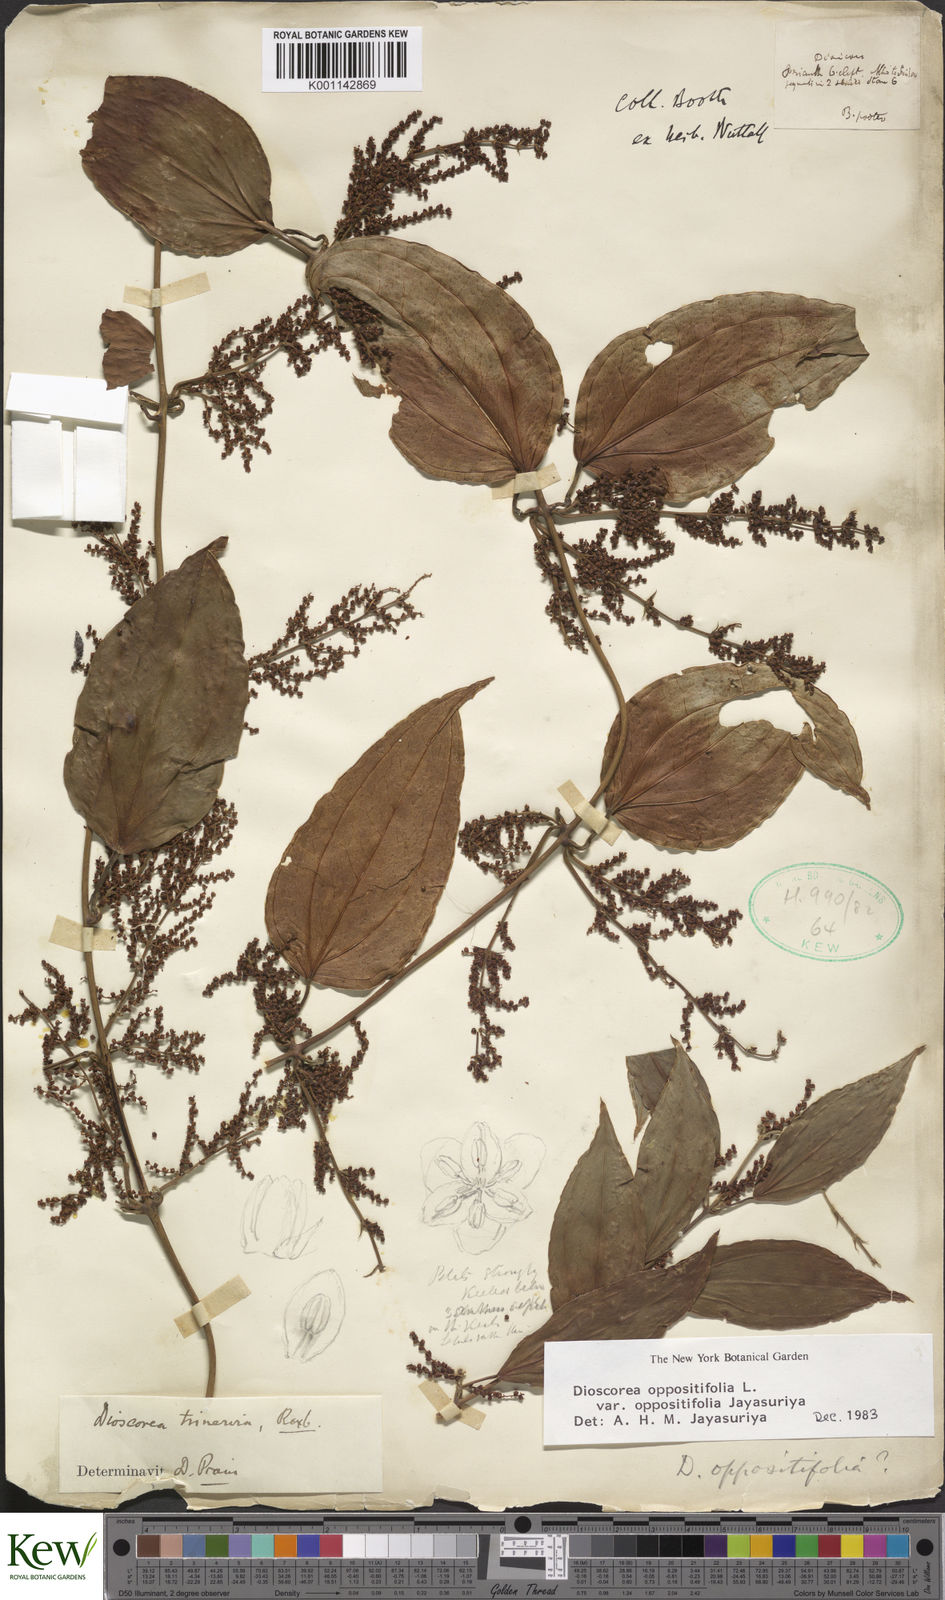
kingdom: Plantae
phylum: Tracheophyta
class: Liliopsida
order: Dioscoreales
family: Dioscoreaceae
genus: Dioscorea
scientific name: Dioscorea oppositifolia
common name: Chinese yam
